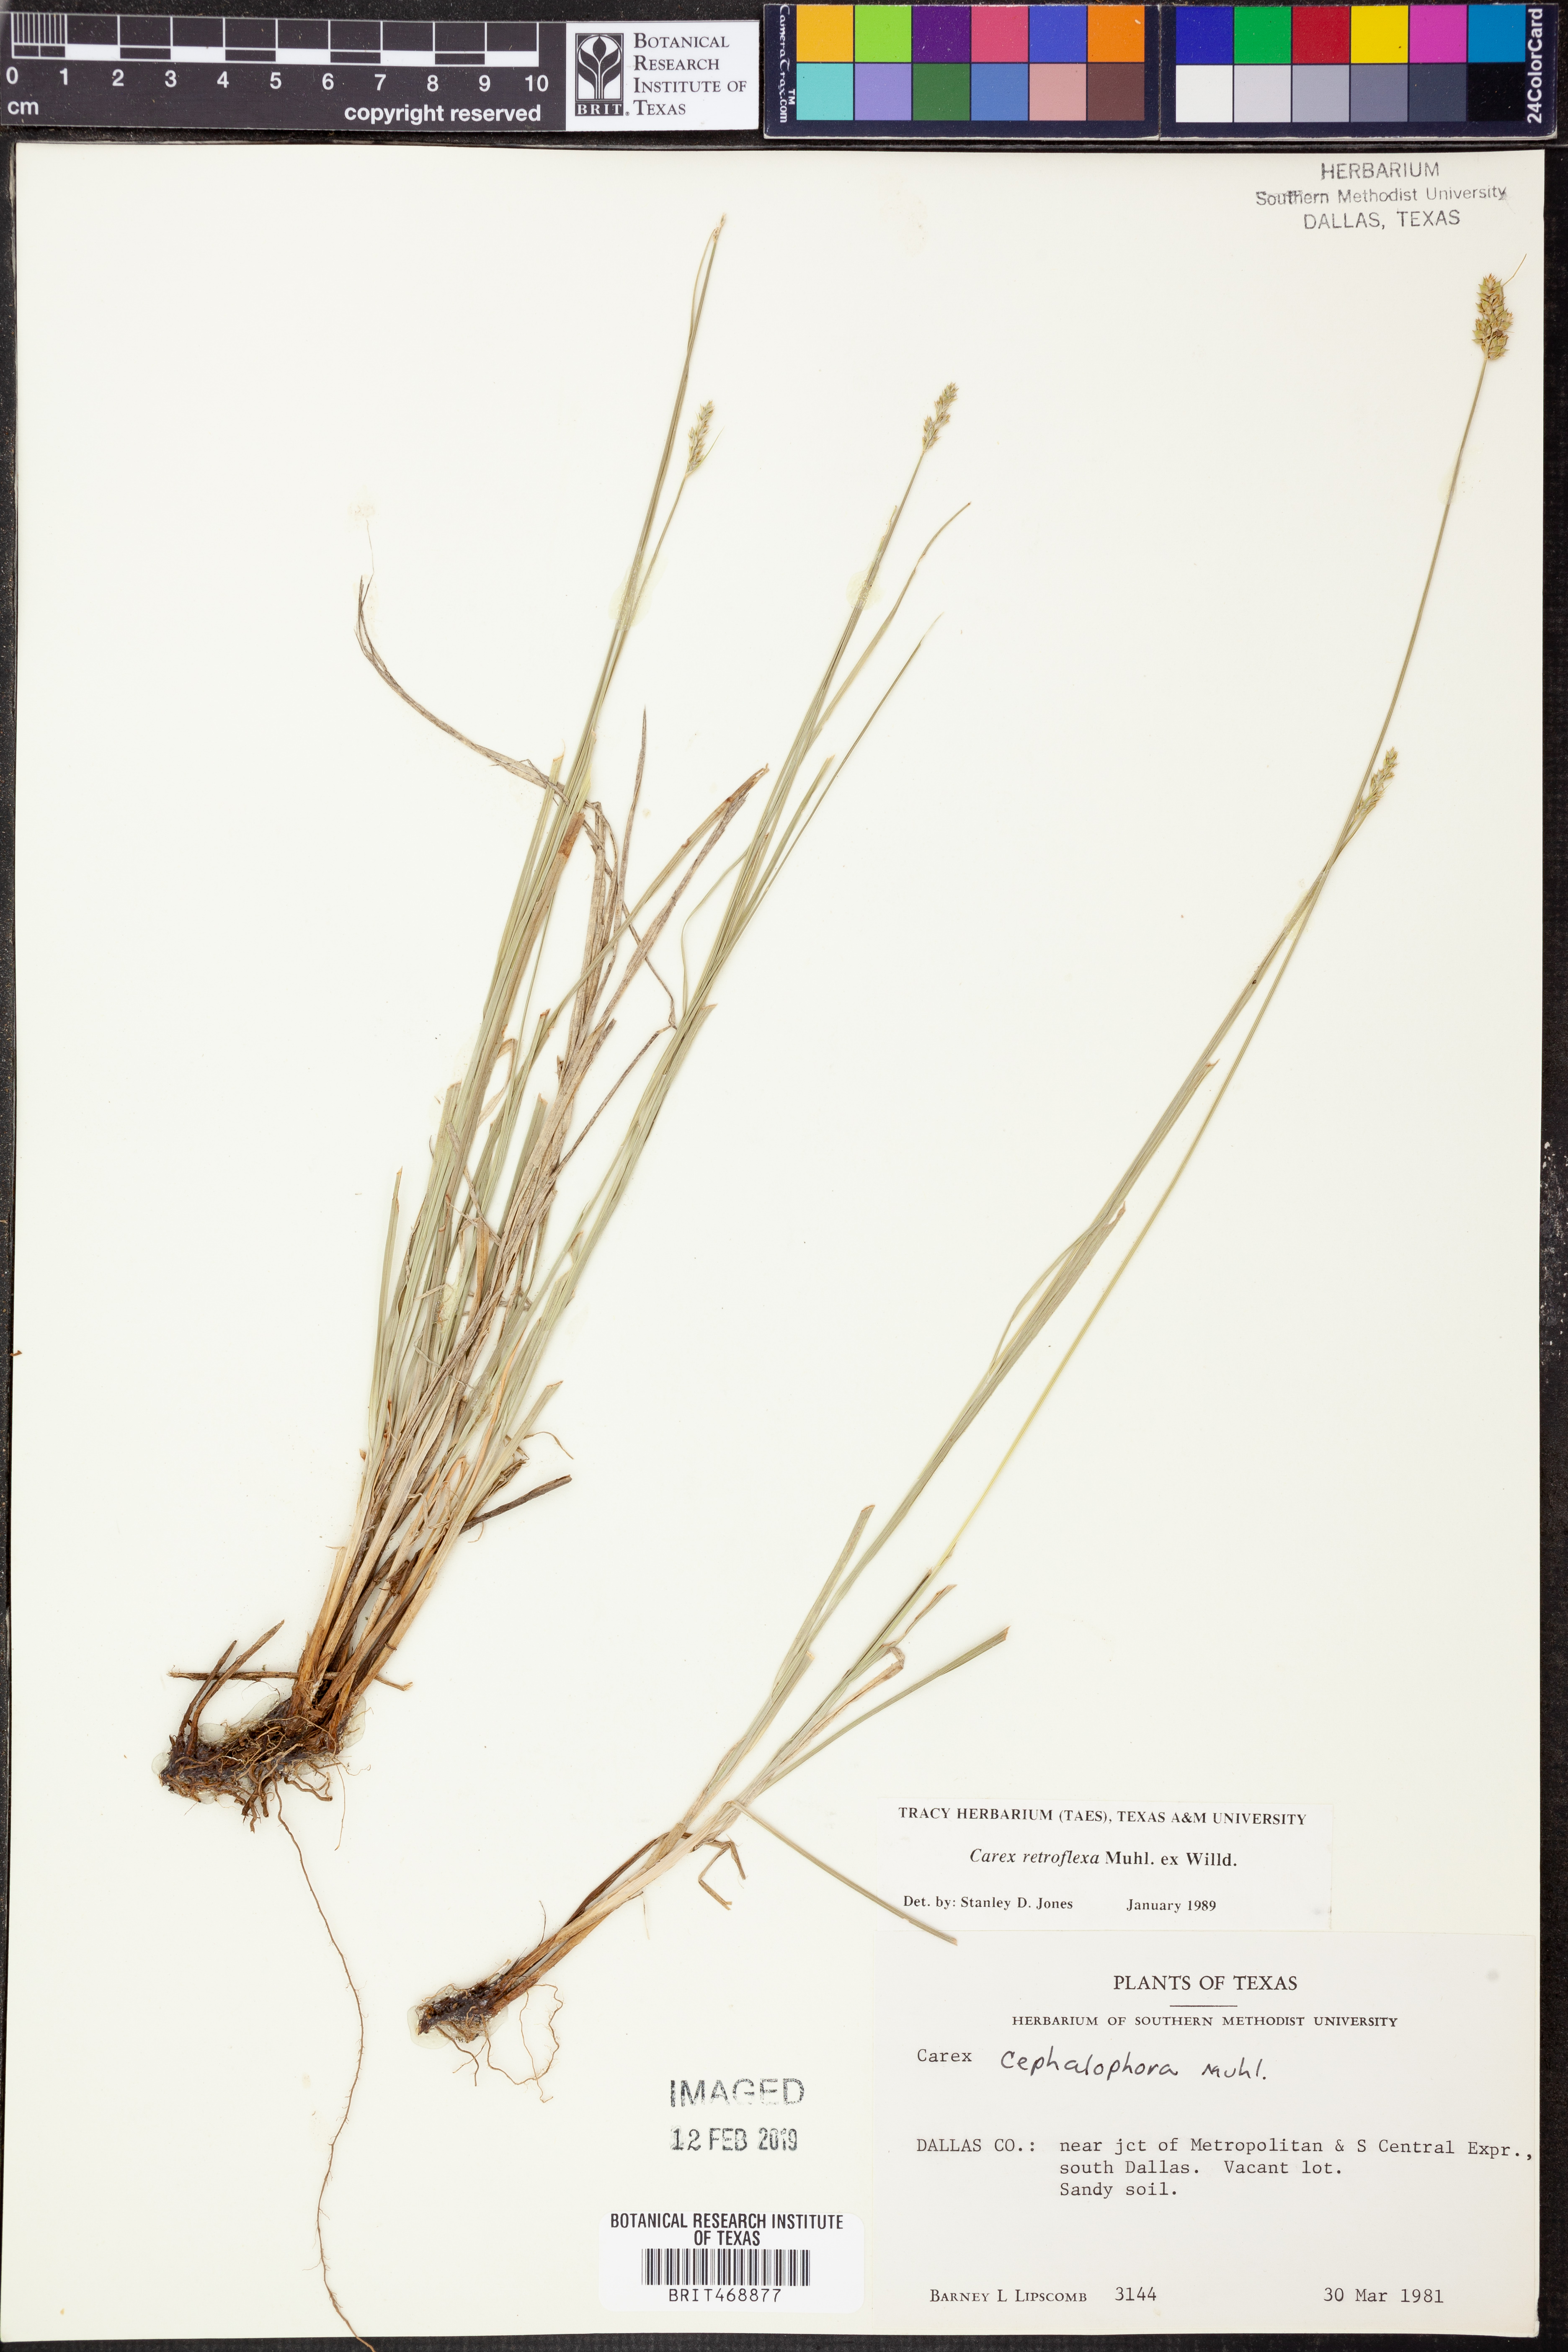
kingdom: Plantae
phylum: Tracheophyta
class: Liliopsida
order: Poales
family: Cyperaceae
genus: Carex
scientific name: Carex retroflexa
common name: Reflexed sedge
